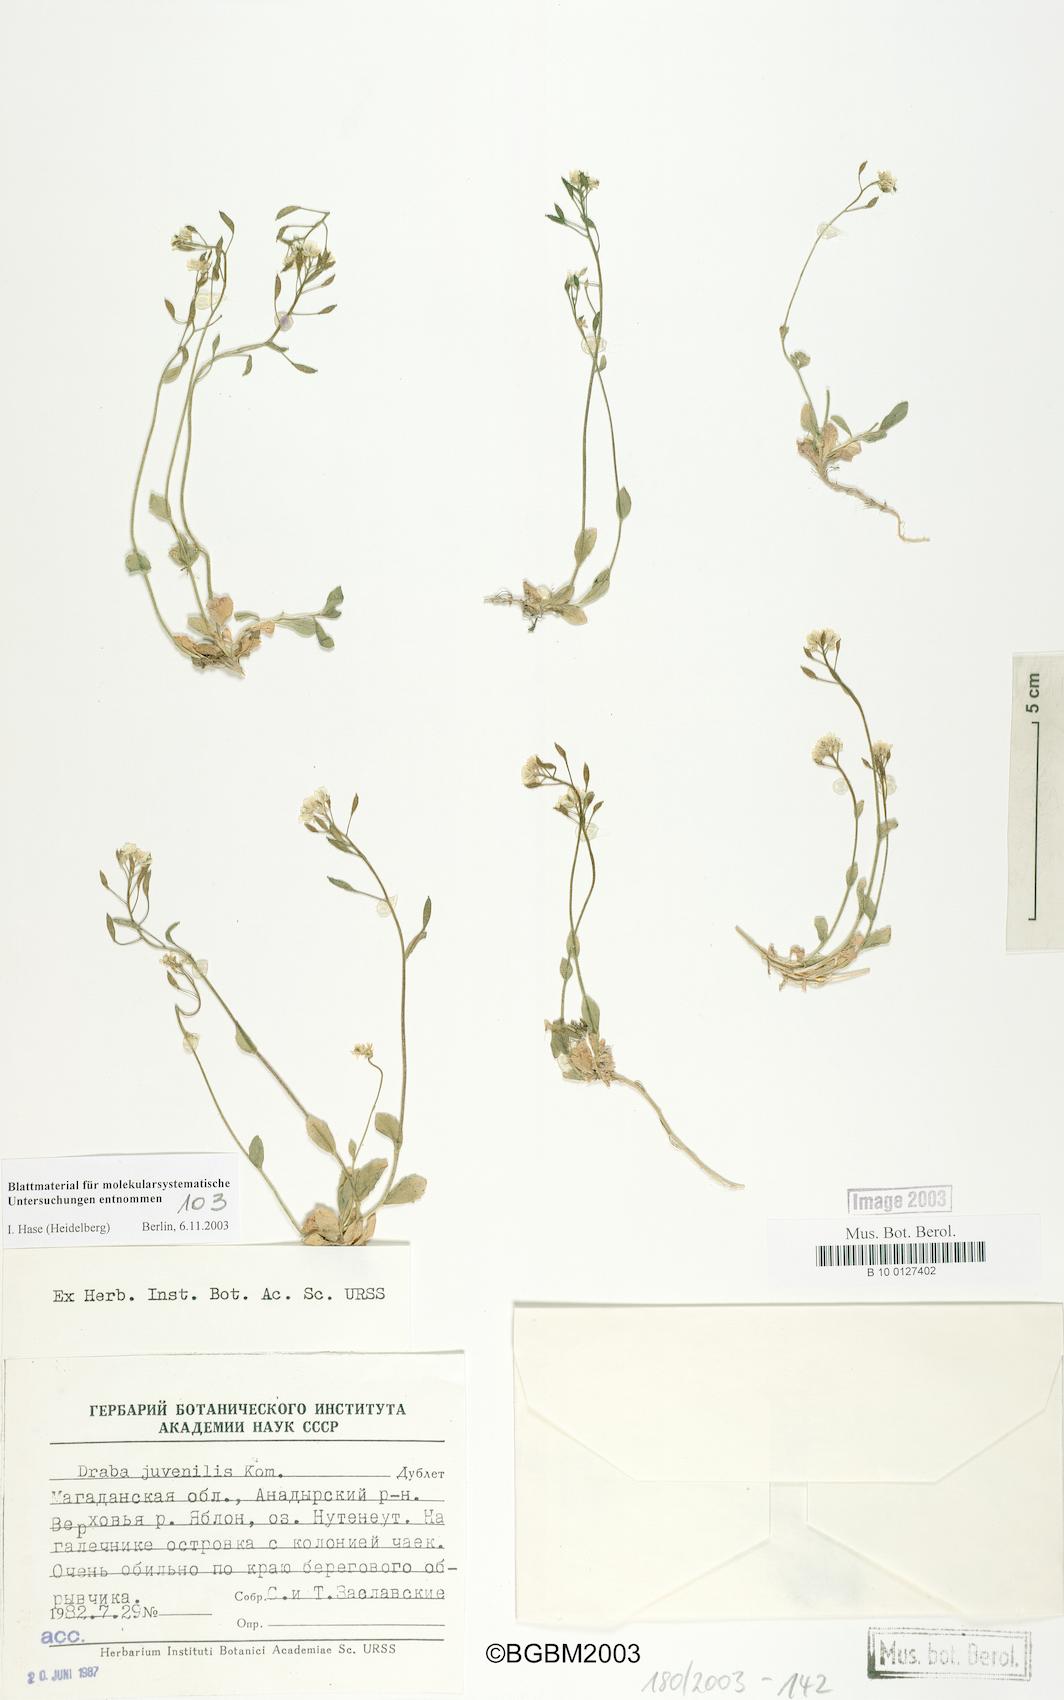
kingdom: Plantae
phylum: Tracheophyta
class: Magnoliopsida
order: Brassicales
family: Brassicaceae
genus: Draba
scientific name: Draba juvenilis
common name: Long-stalked draba
